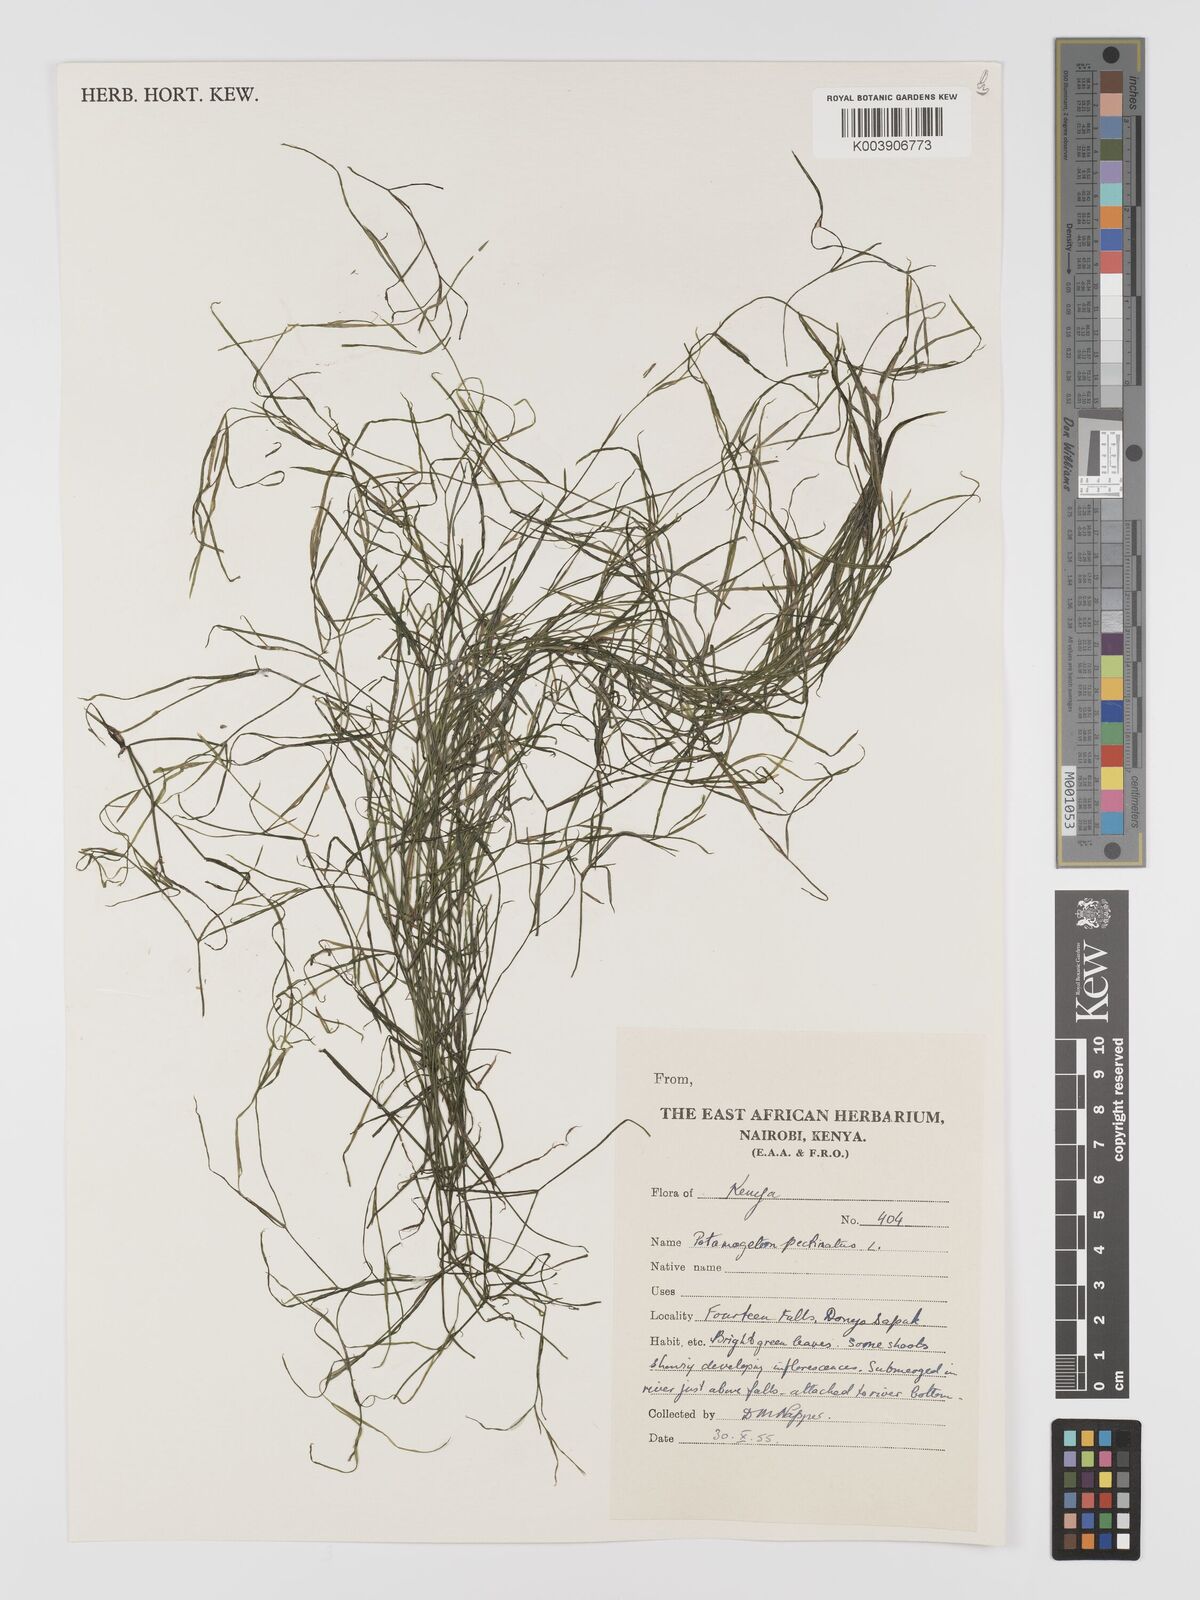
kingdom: Plantae
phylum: Tracheophyta
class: Liliopsida
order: Alismatales
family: Potamogetonaceae
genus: Stuckenia
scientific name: Stuckenia pectinata
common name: Sago pondweed
